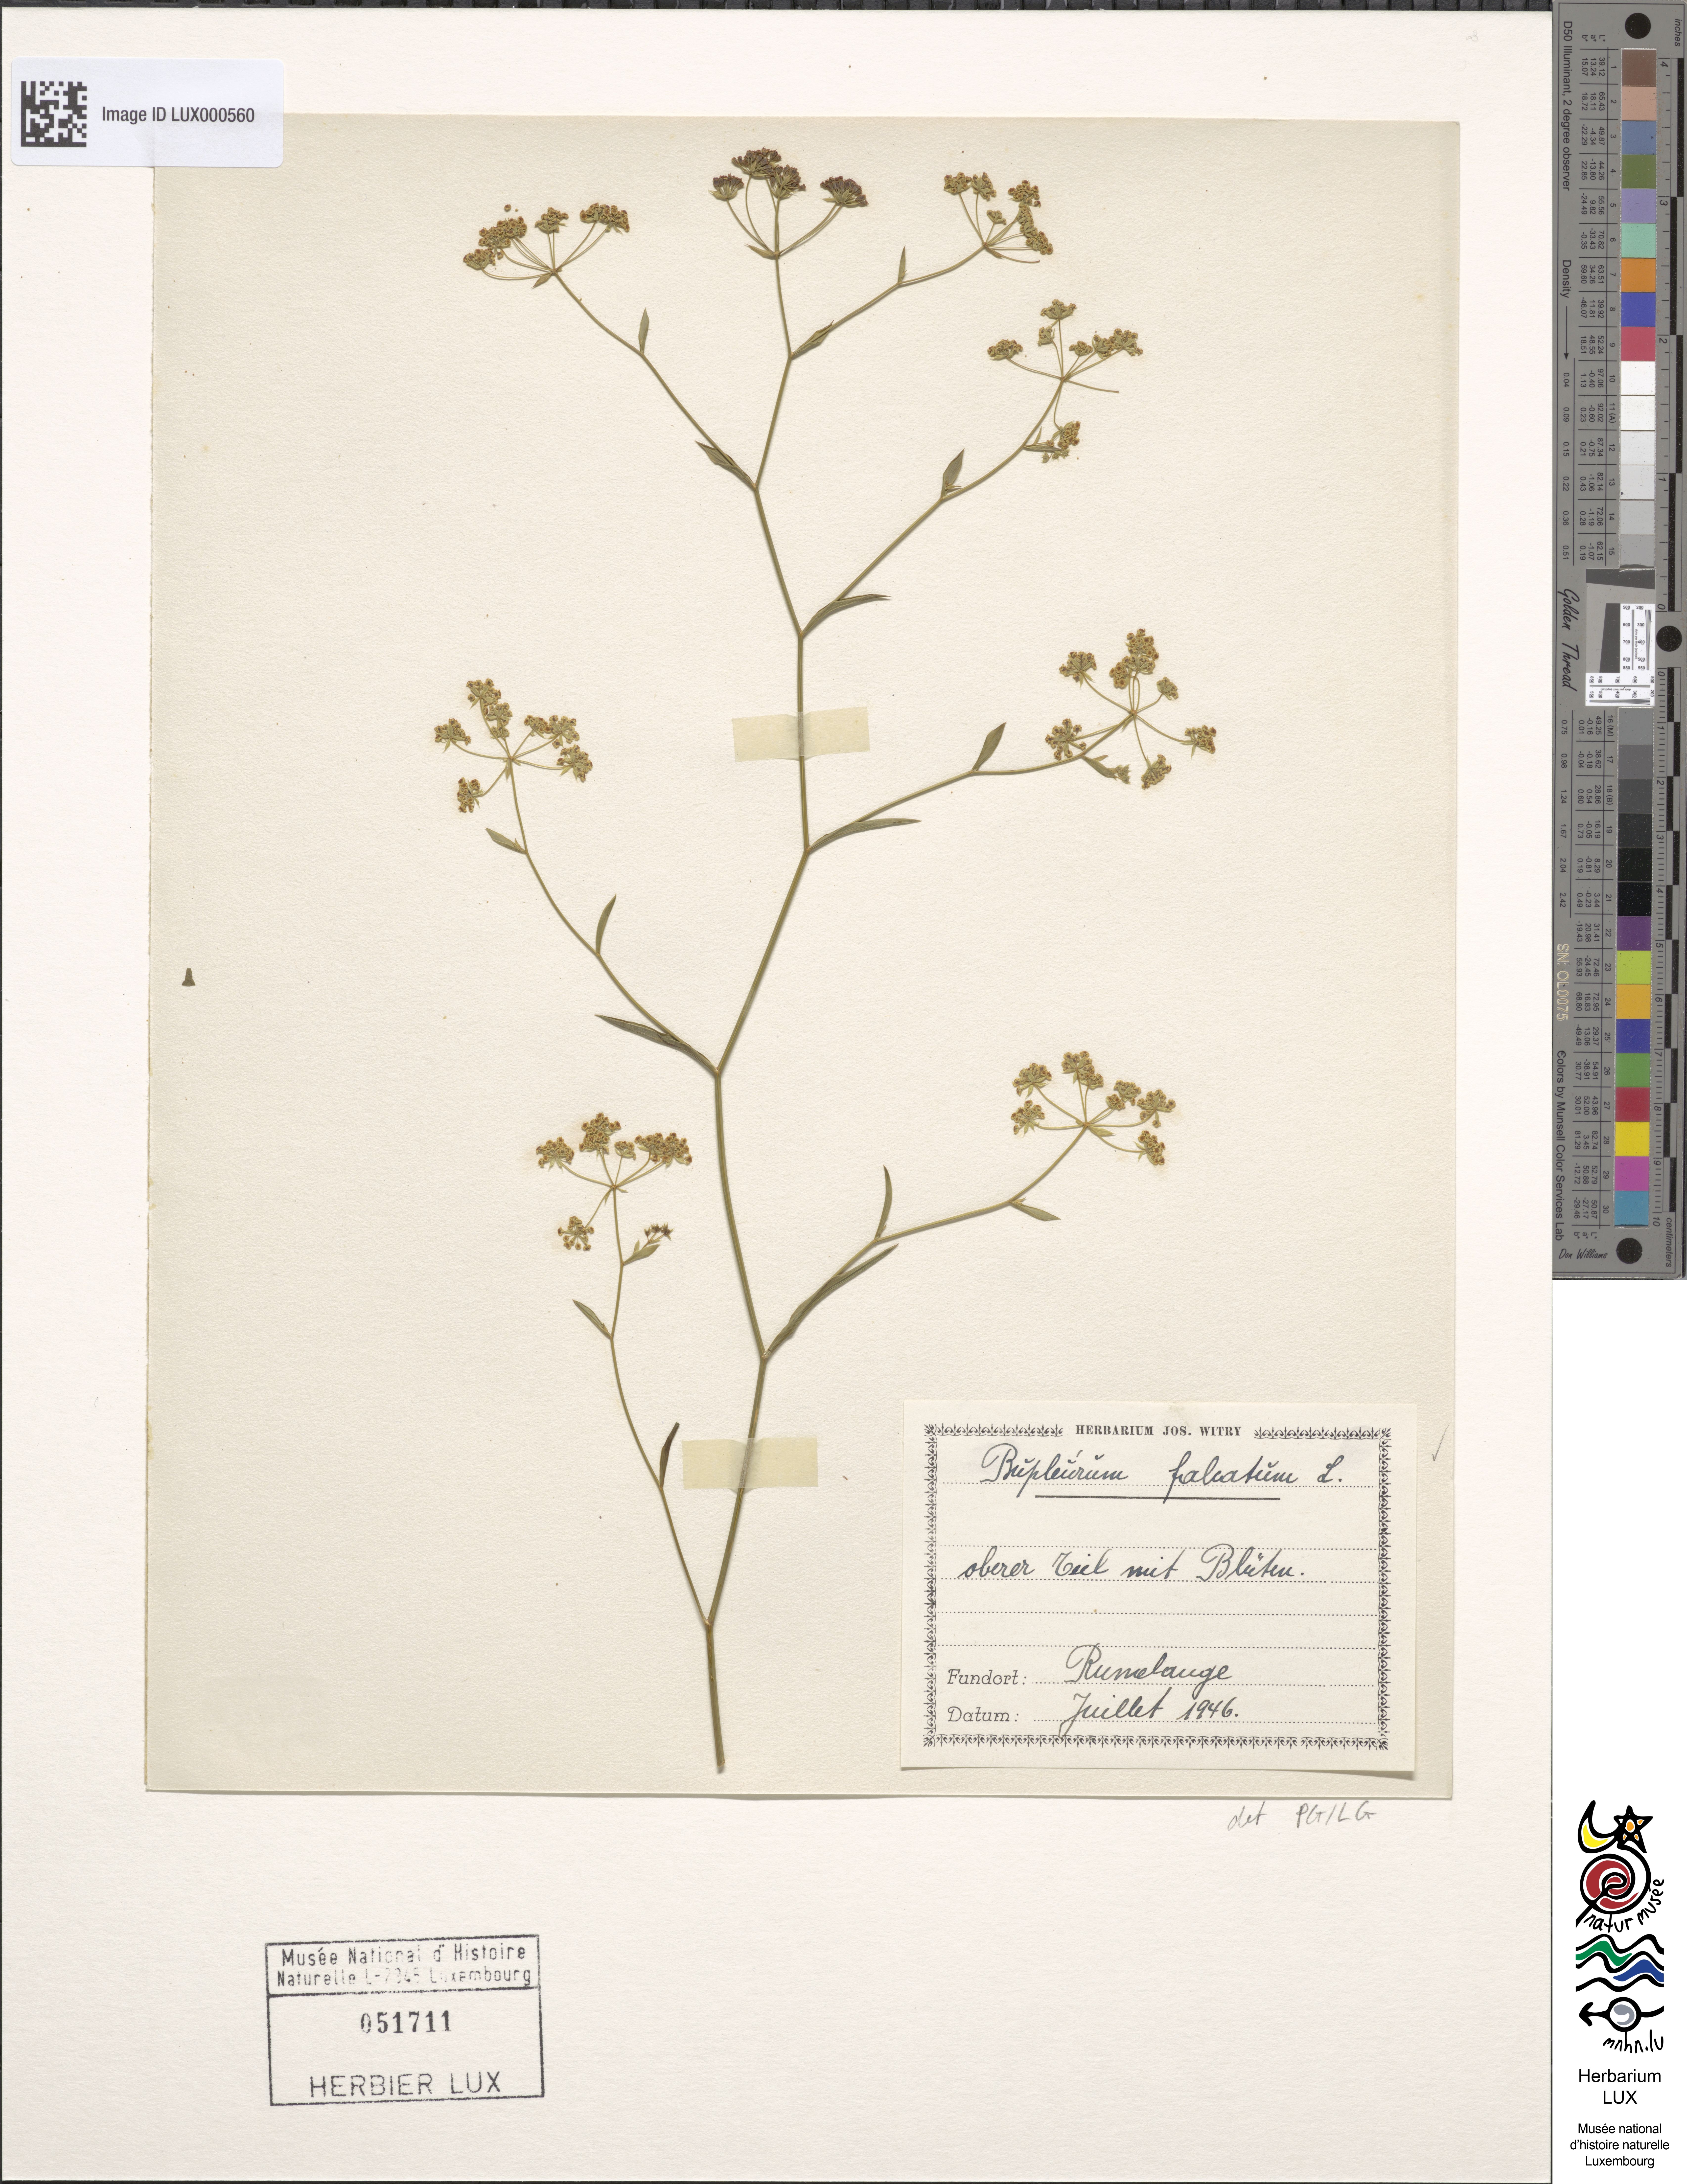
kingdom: Plantae
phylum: Tracheophyta
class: Magnoliopsida
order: Apiales
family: Apiaceae
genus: Bupleurum
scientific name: Bupleurum falcatum
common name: Sickle-leaved hare's-ear
